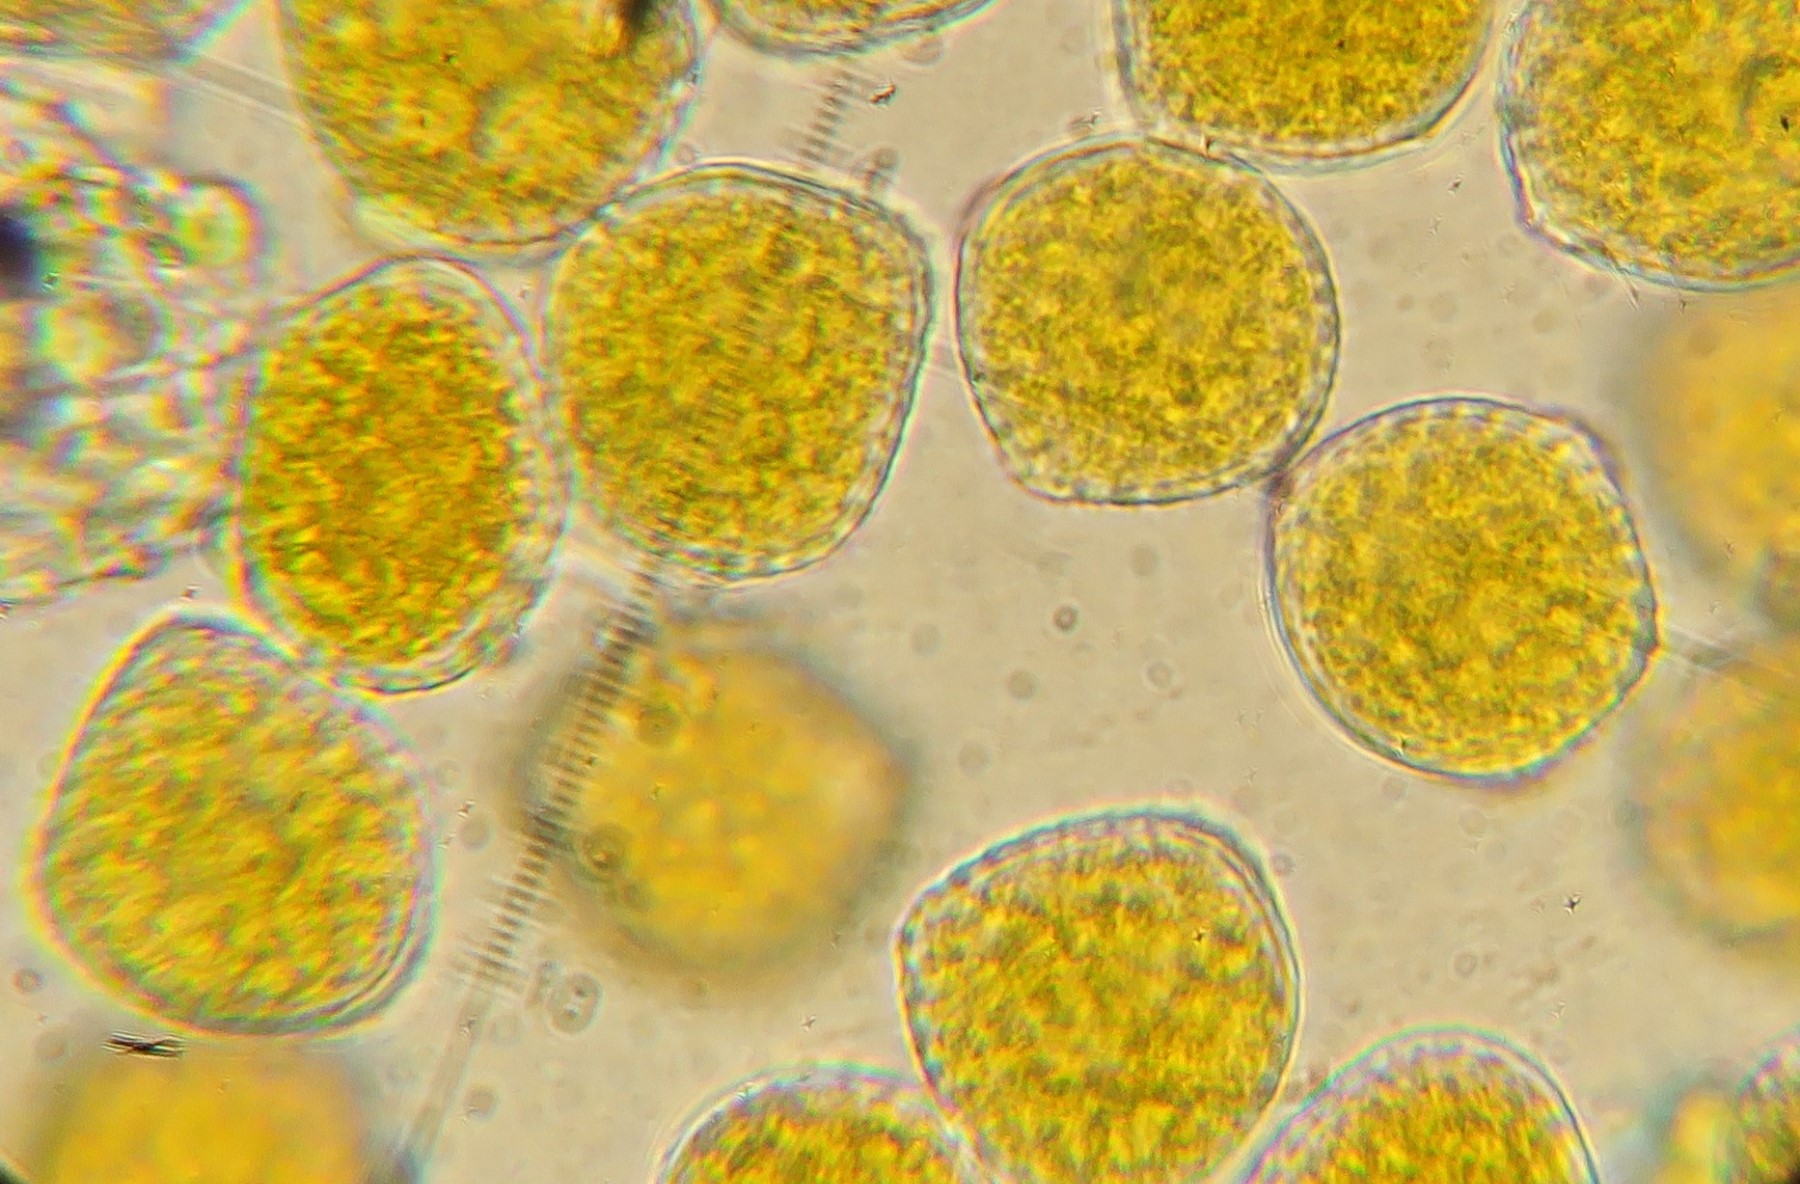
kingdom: Fungi
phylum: Basidiomycota
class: Pucciniomycetes
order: Pucciniales
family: Phragmidiaceae
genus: Kuehneola
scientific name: Kuehneola uredinis
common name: klynger-kædecellerust
